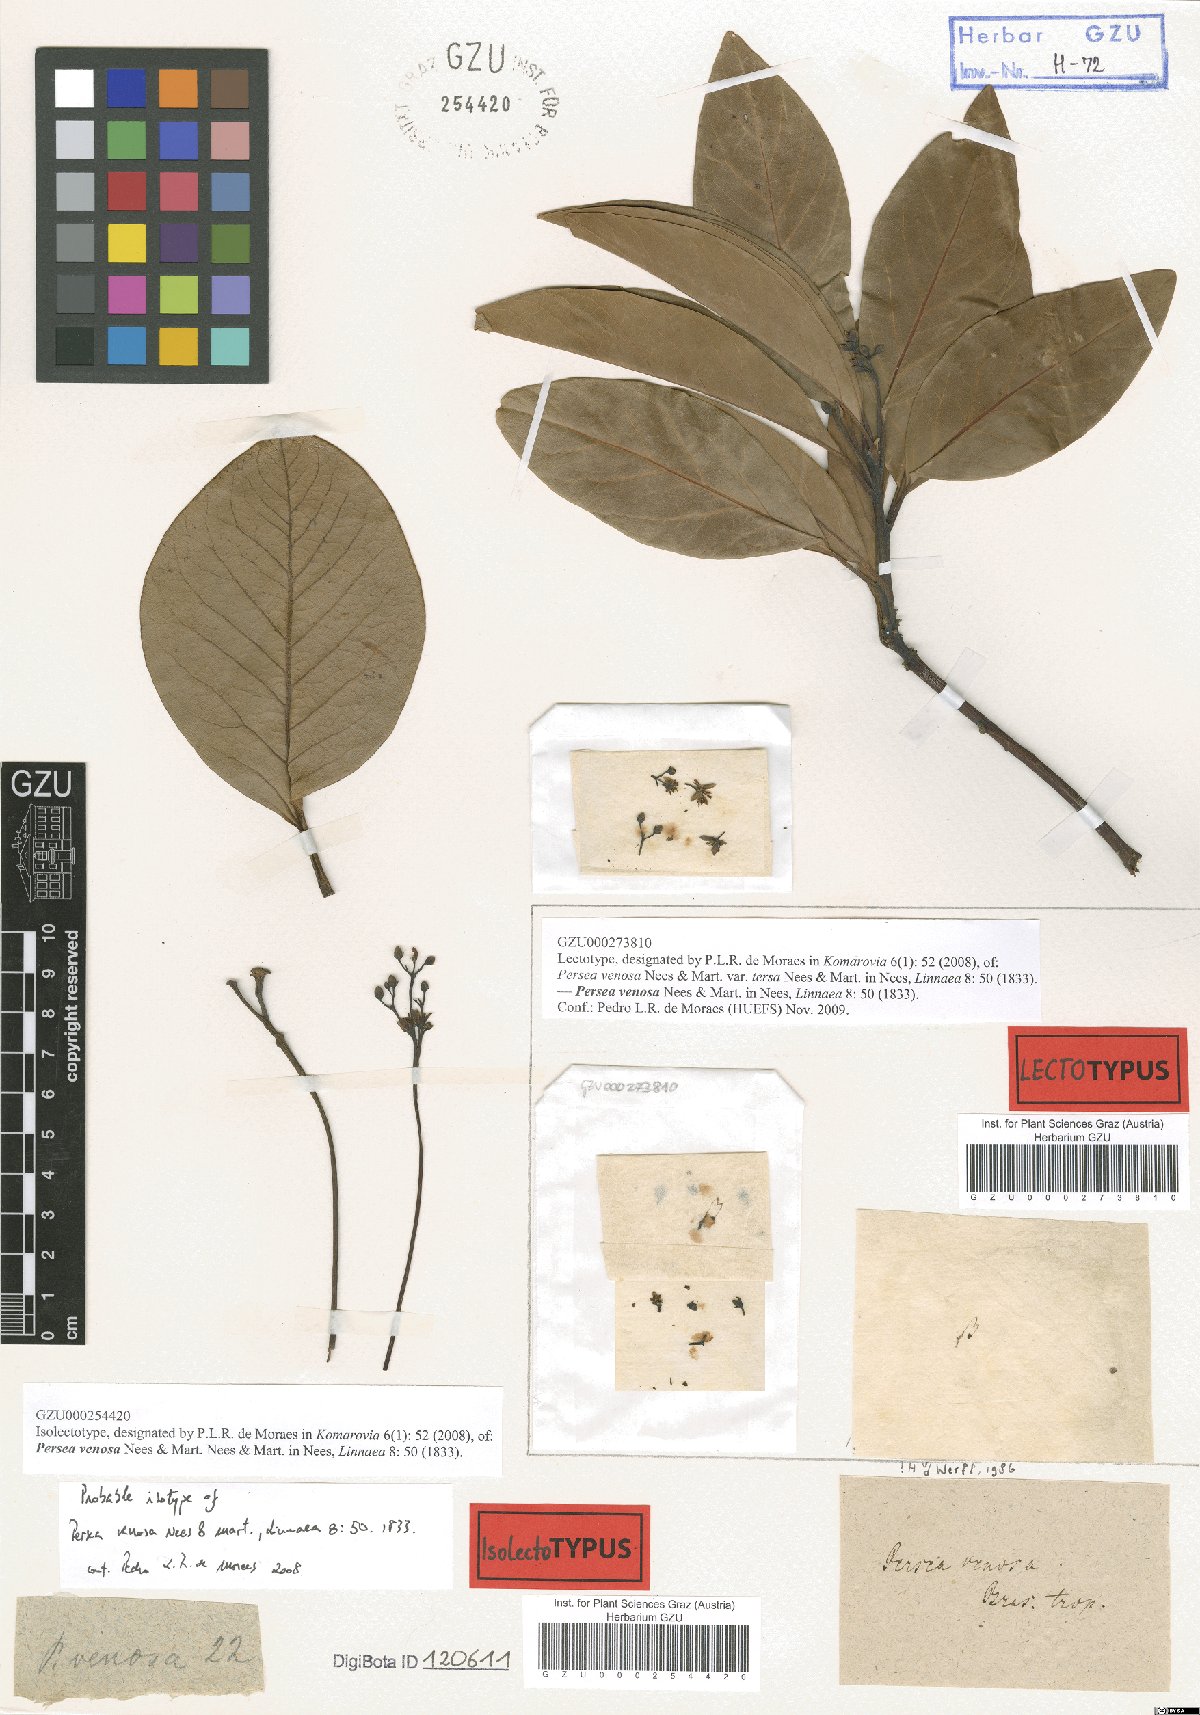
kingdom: Plantae
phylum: Tracheophyta
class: Magnoliopsida
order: Laurales
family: Lauraceae
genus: Persea
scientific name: Persea venosa
